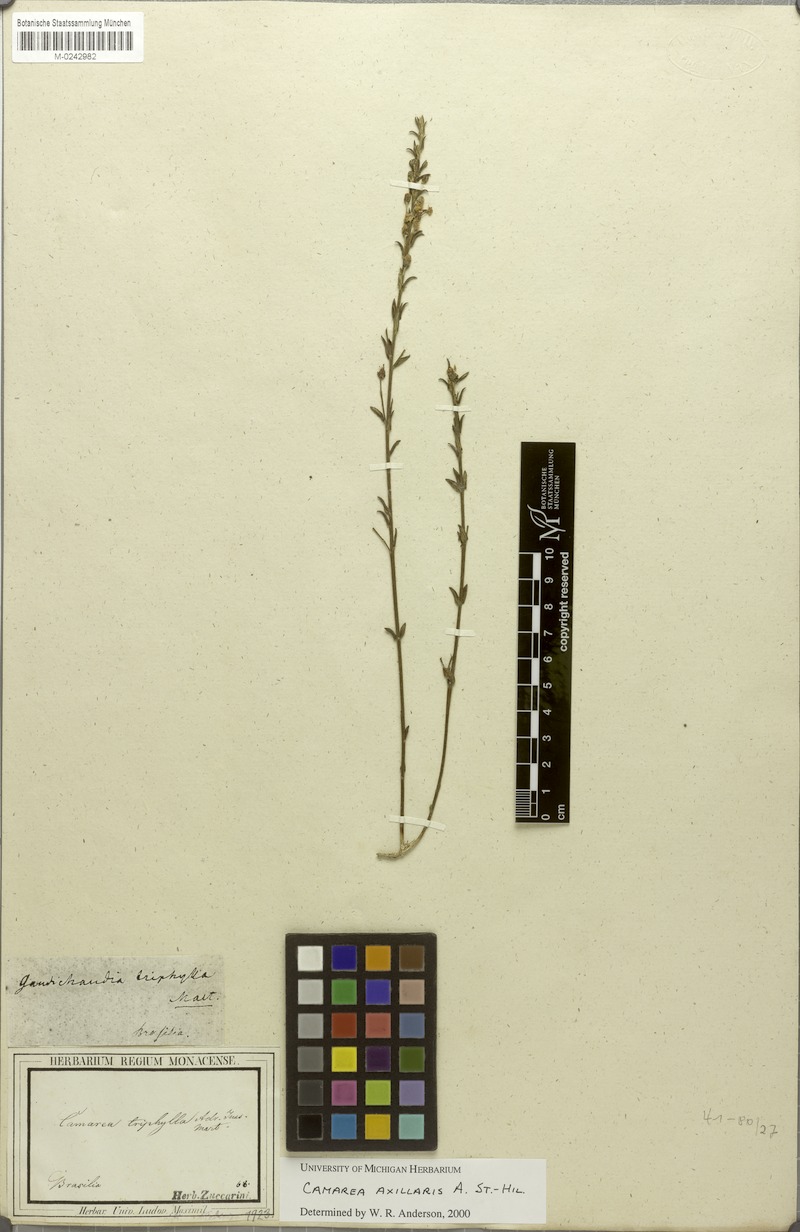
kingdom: Plantae
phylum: Tracheophyta
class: Magnoliopsida
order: Malpighiales
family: Malpighiaceae
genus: Camarea
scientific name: Camarea axillaris
